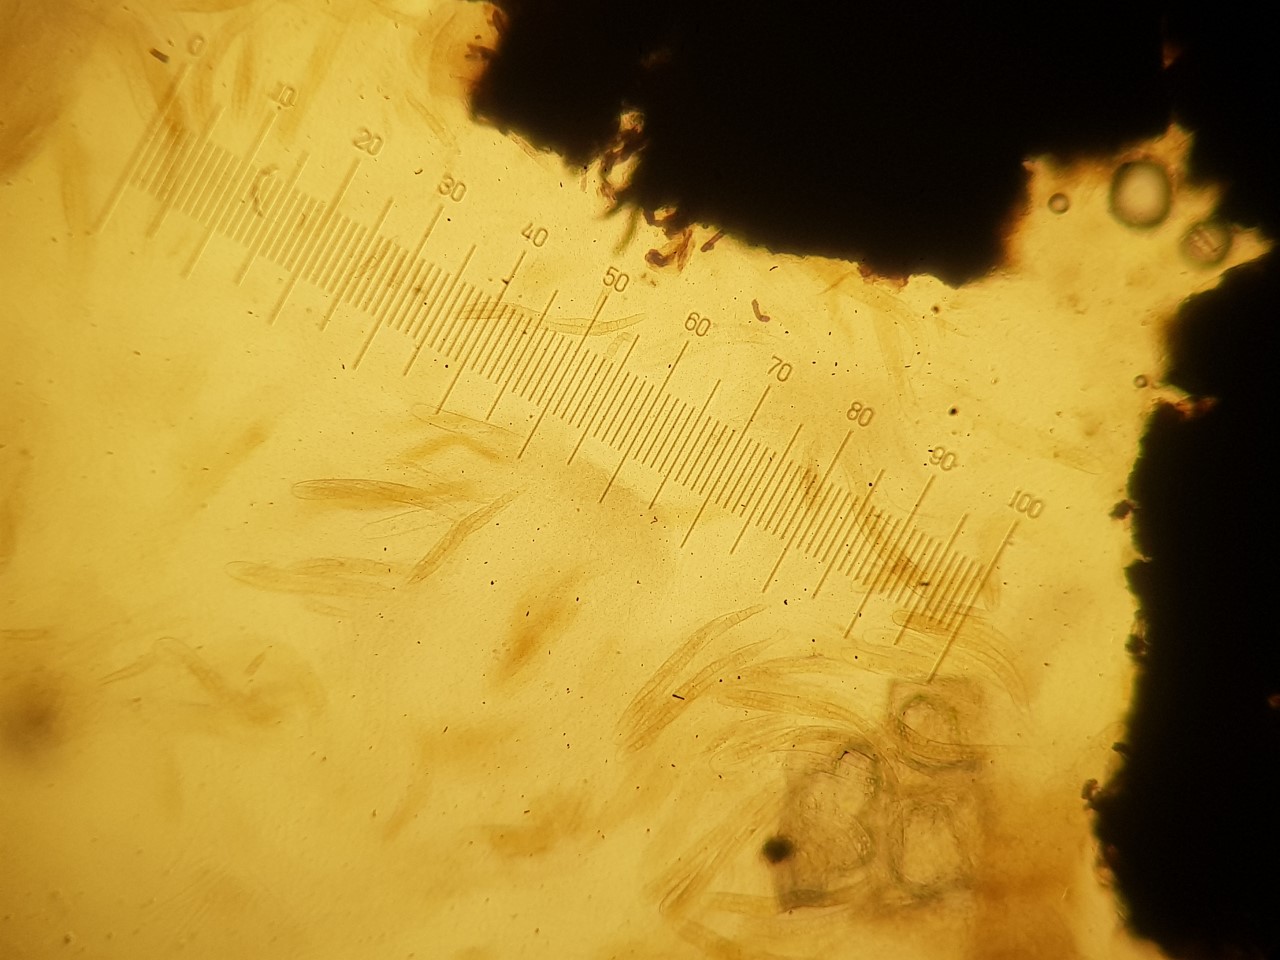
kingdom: Fungi
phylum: Ascomycota
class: Dothideomycetes
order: Pleosporales
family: Phaeosphaeriaceae
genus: Phaeosphaeria
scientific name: Phaeosphaeria sowerbyi
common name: kål-kulkegle
